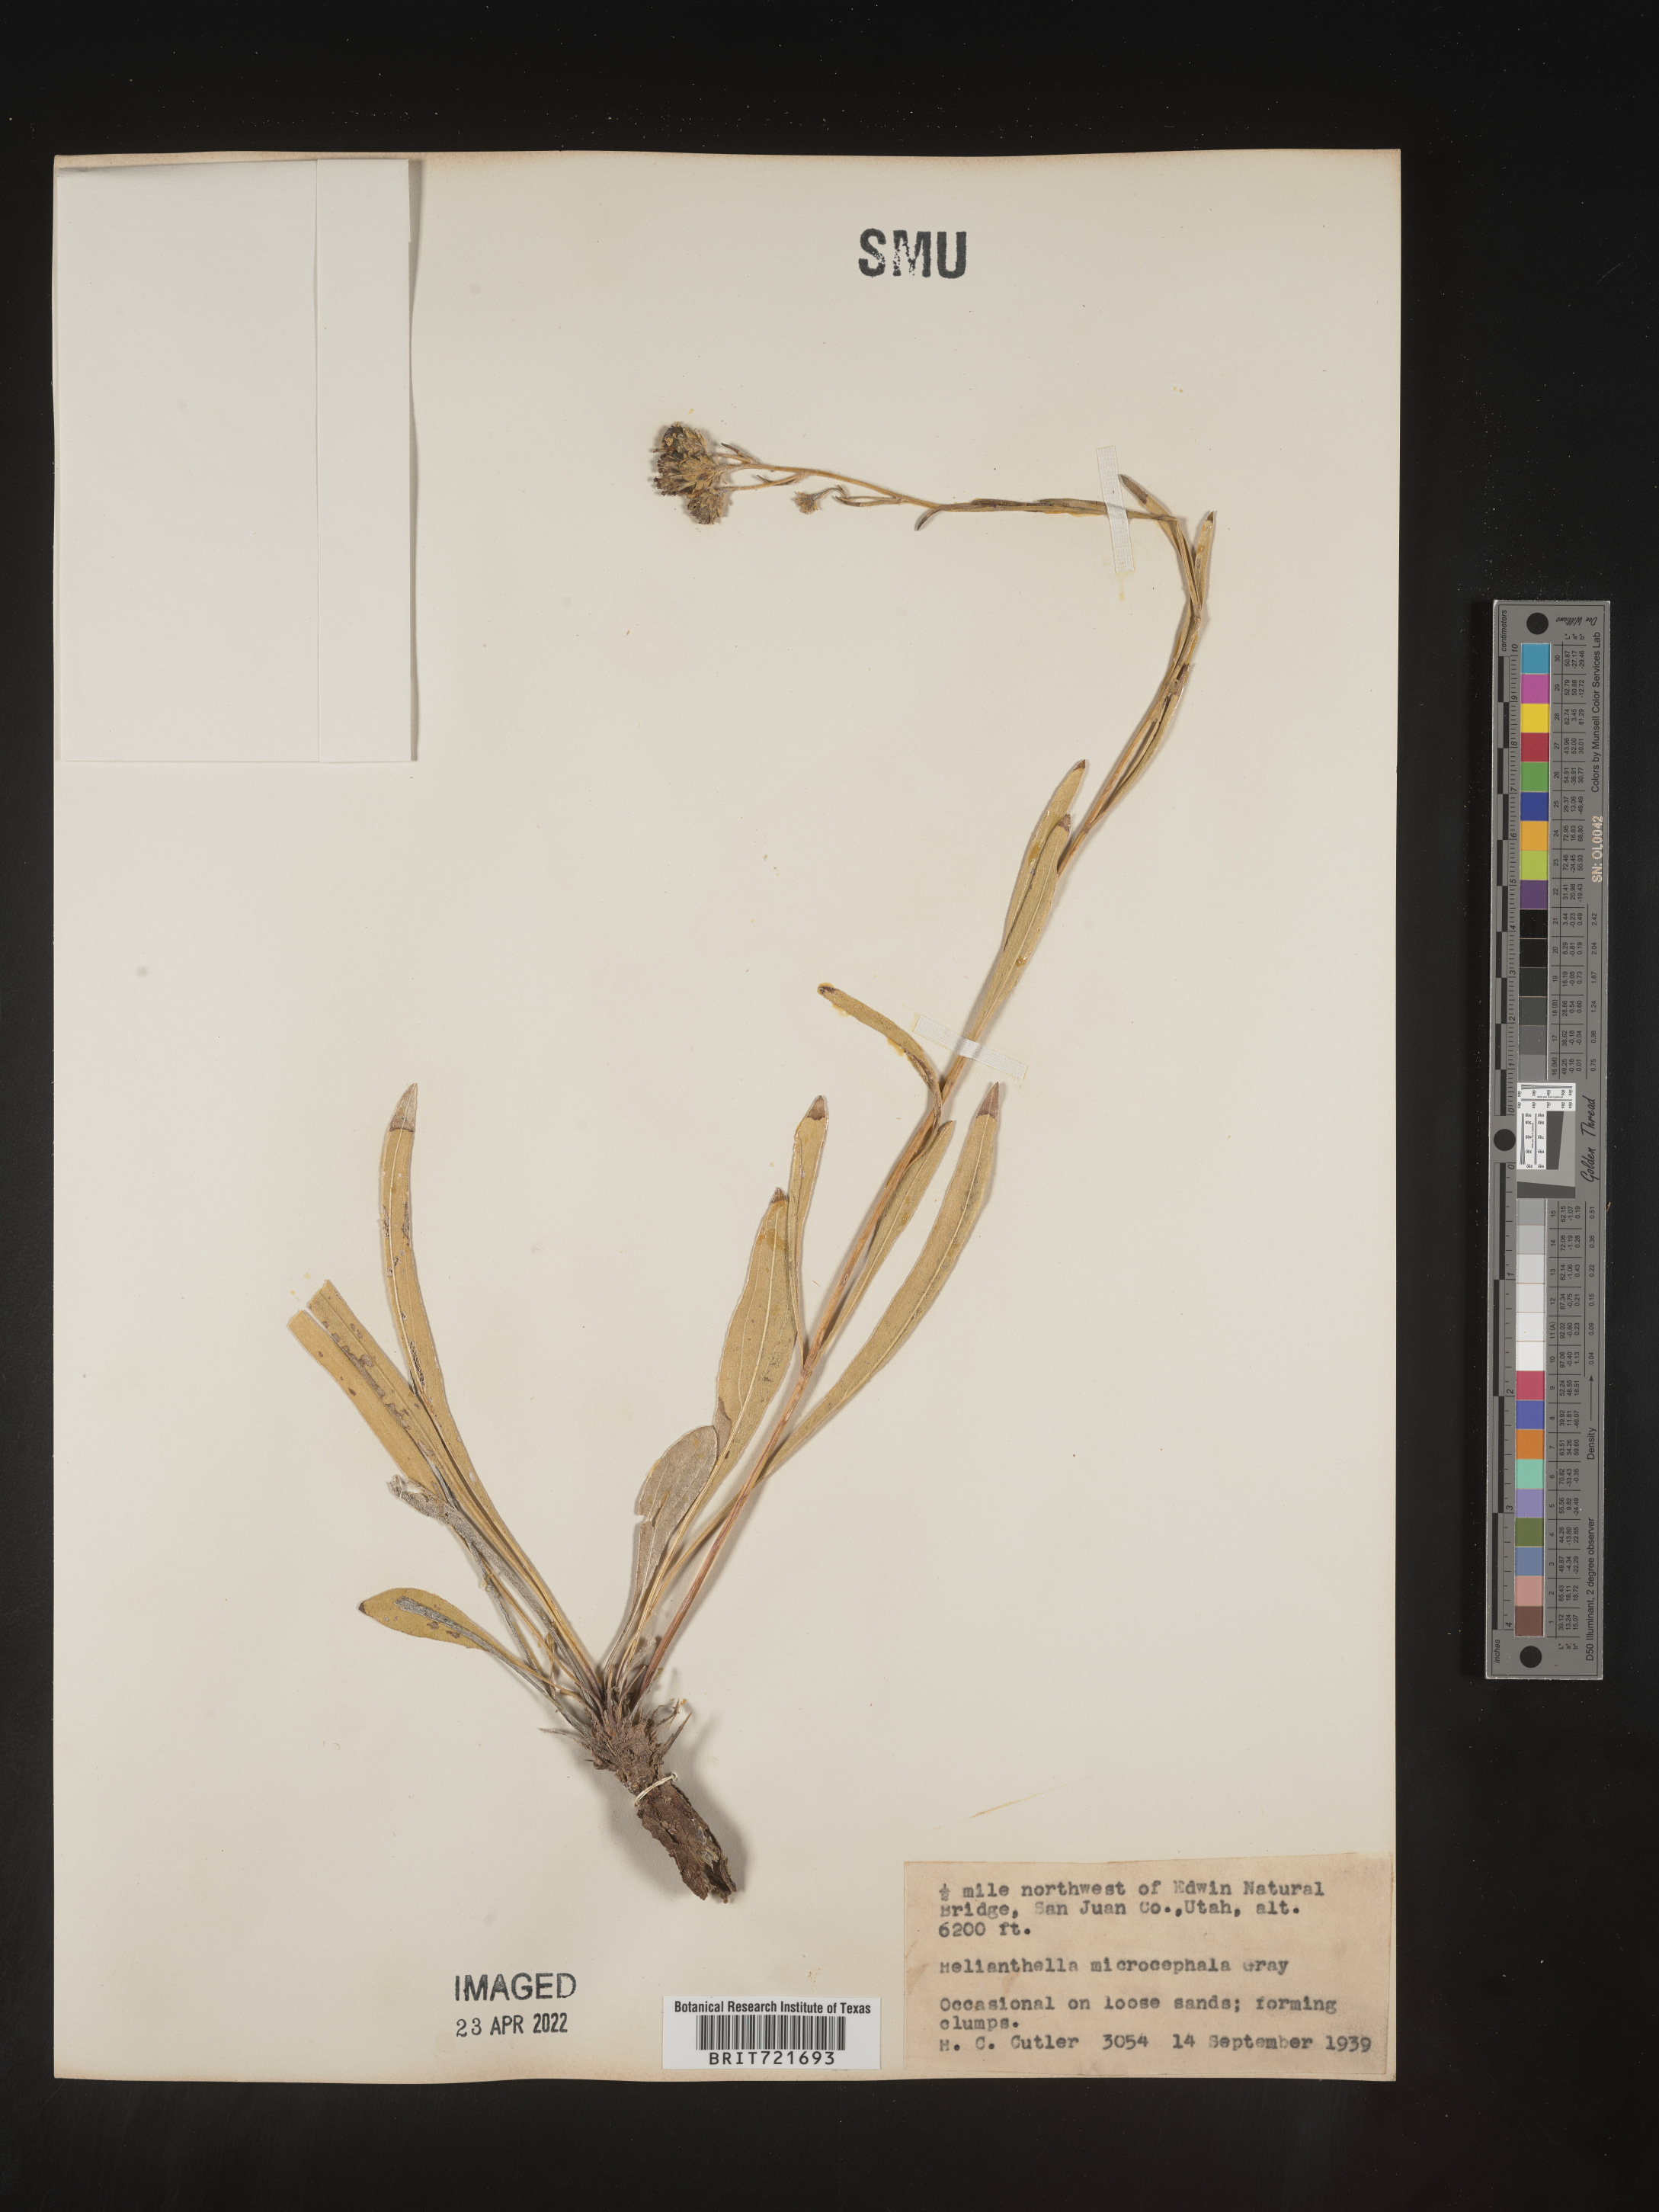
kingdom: Plantae
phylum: Tracheophyta
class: Magnoliopsida
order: Asterales
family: Asteraceae
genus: Helianthella
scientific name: Helianthella microcephala
